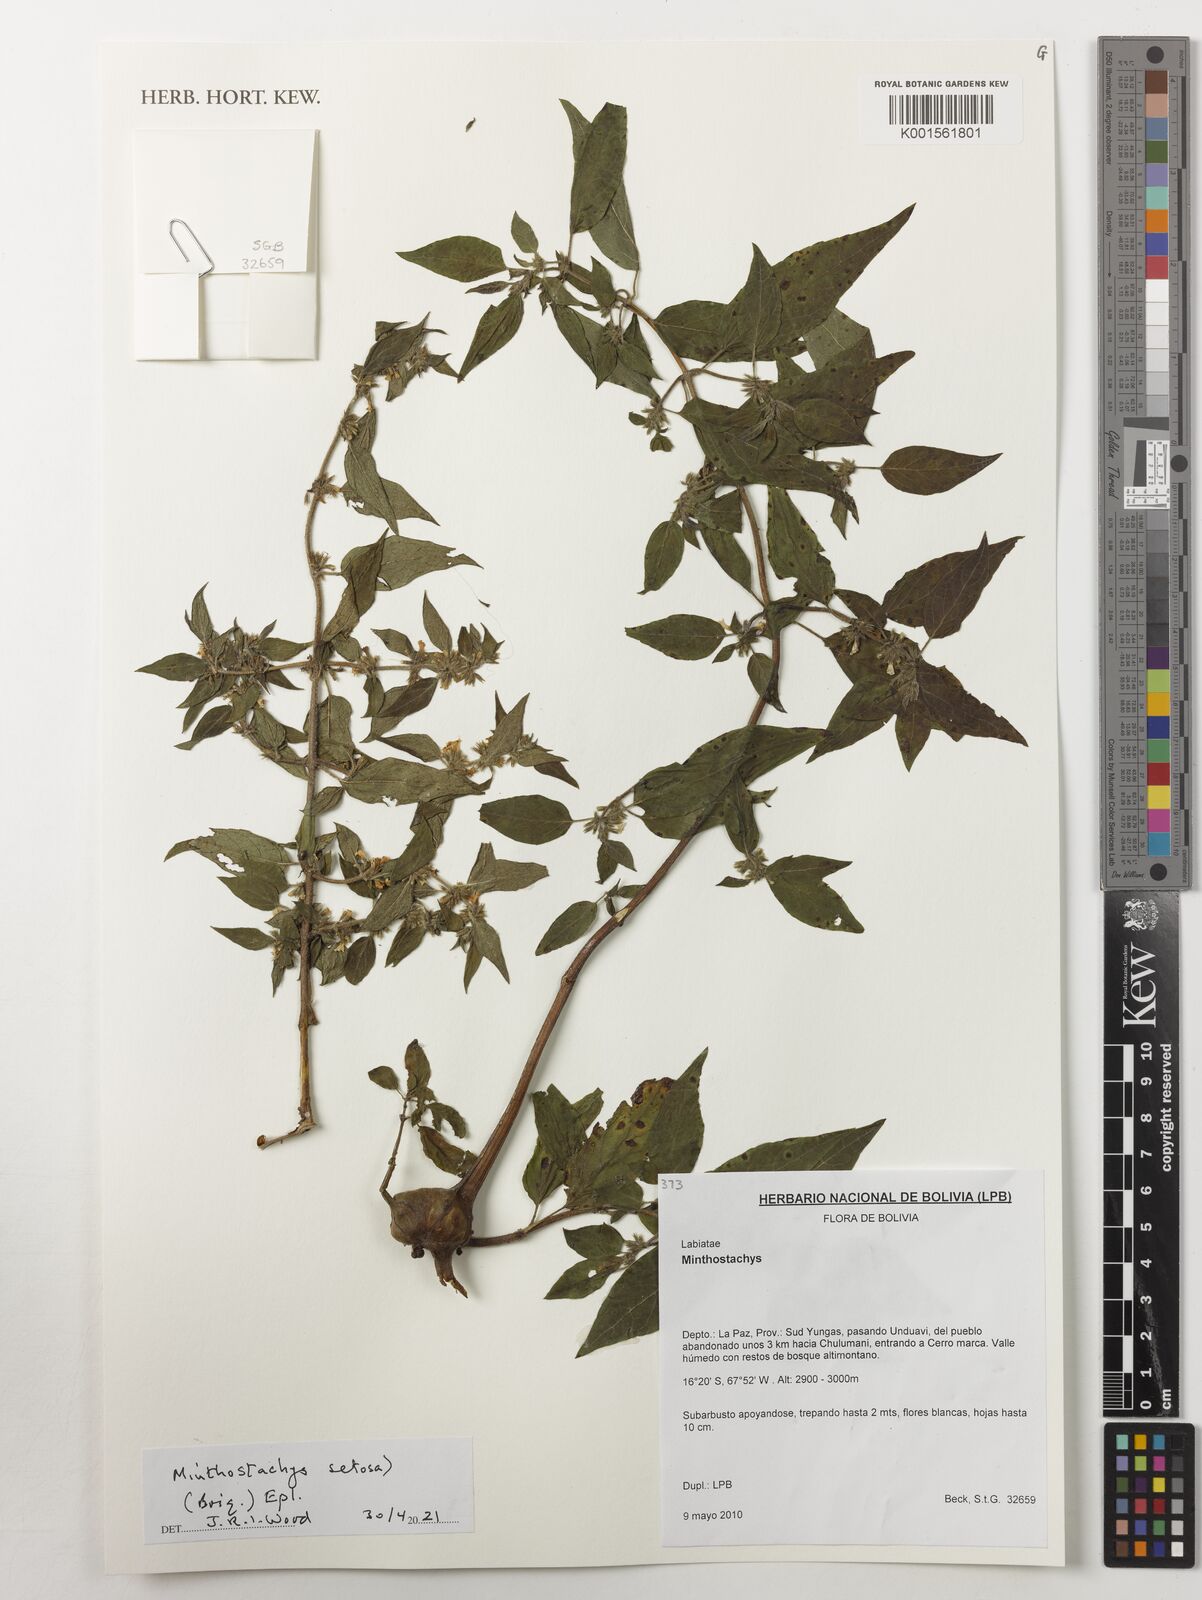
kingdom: Plantae
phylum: Tracheophyta
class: Magnoliopsida
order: Lamiales
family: Lamiaceae
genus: Minthostachys
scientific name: Minthostachys setosa
